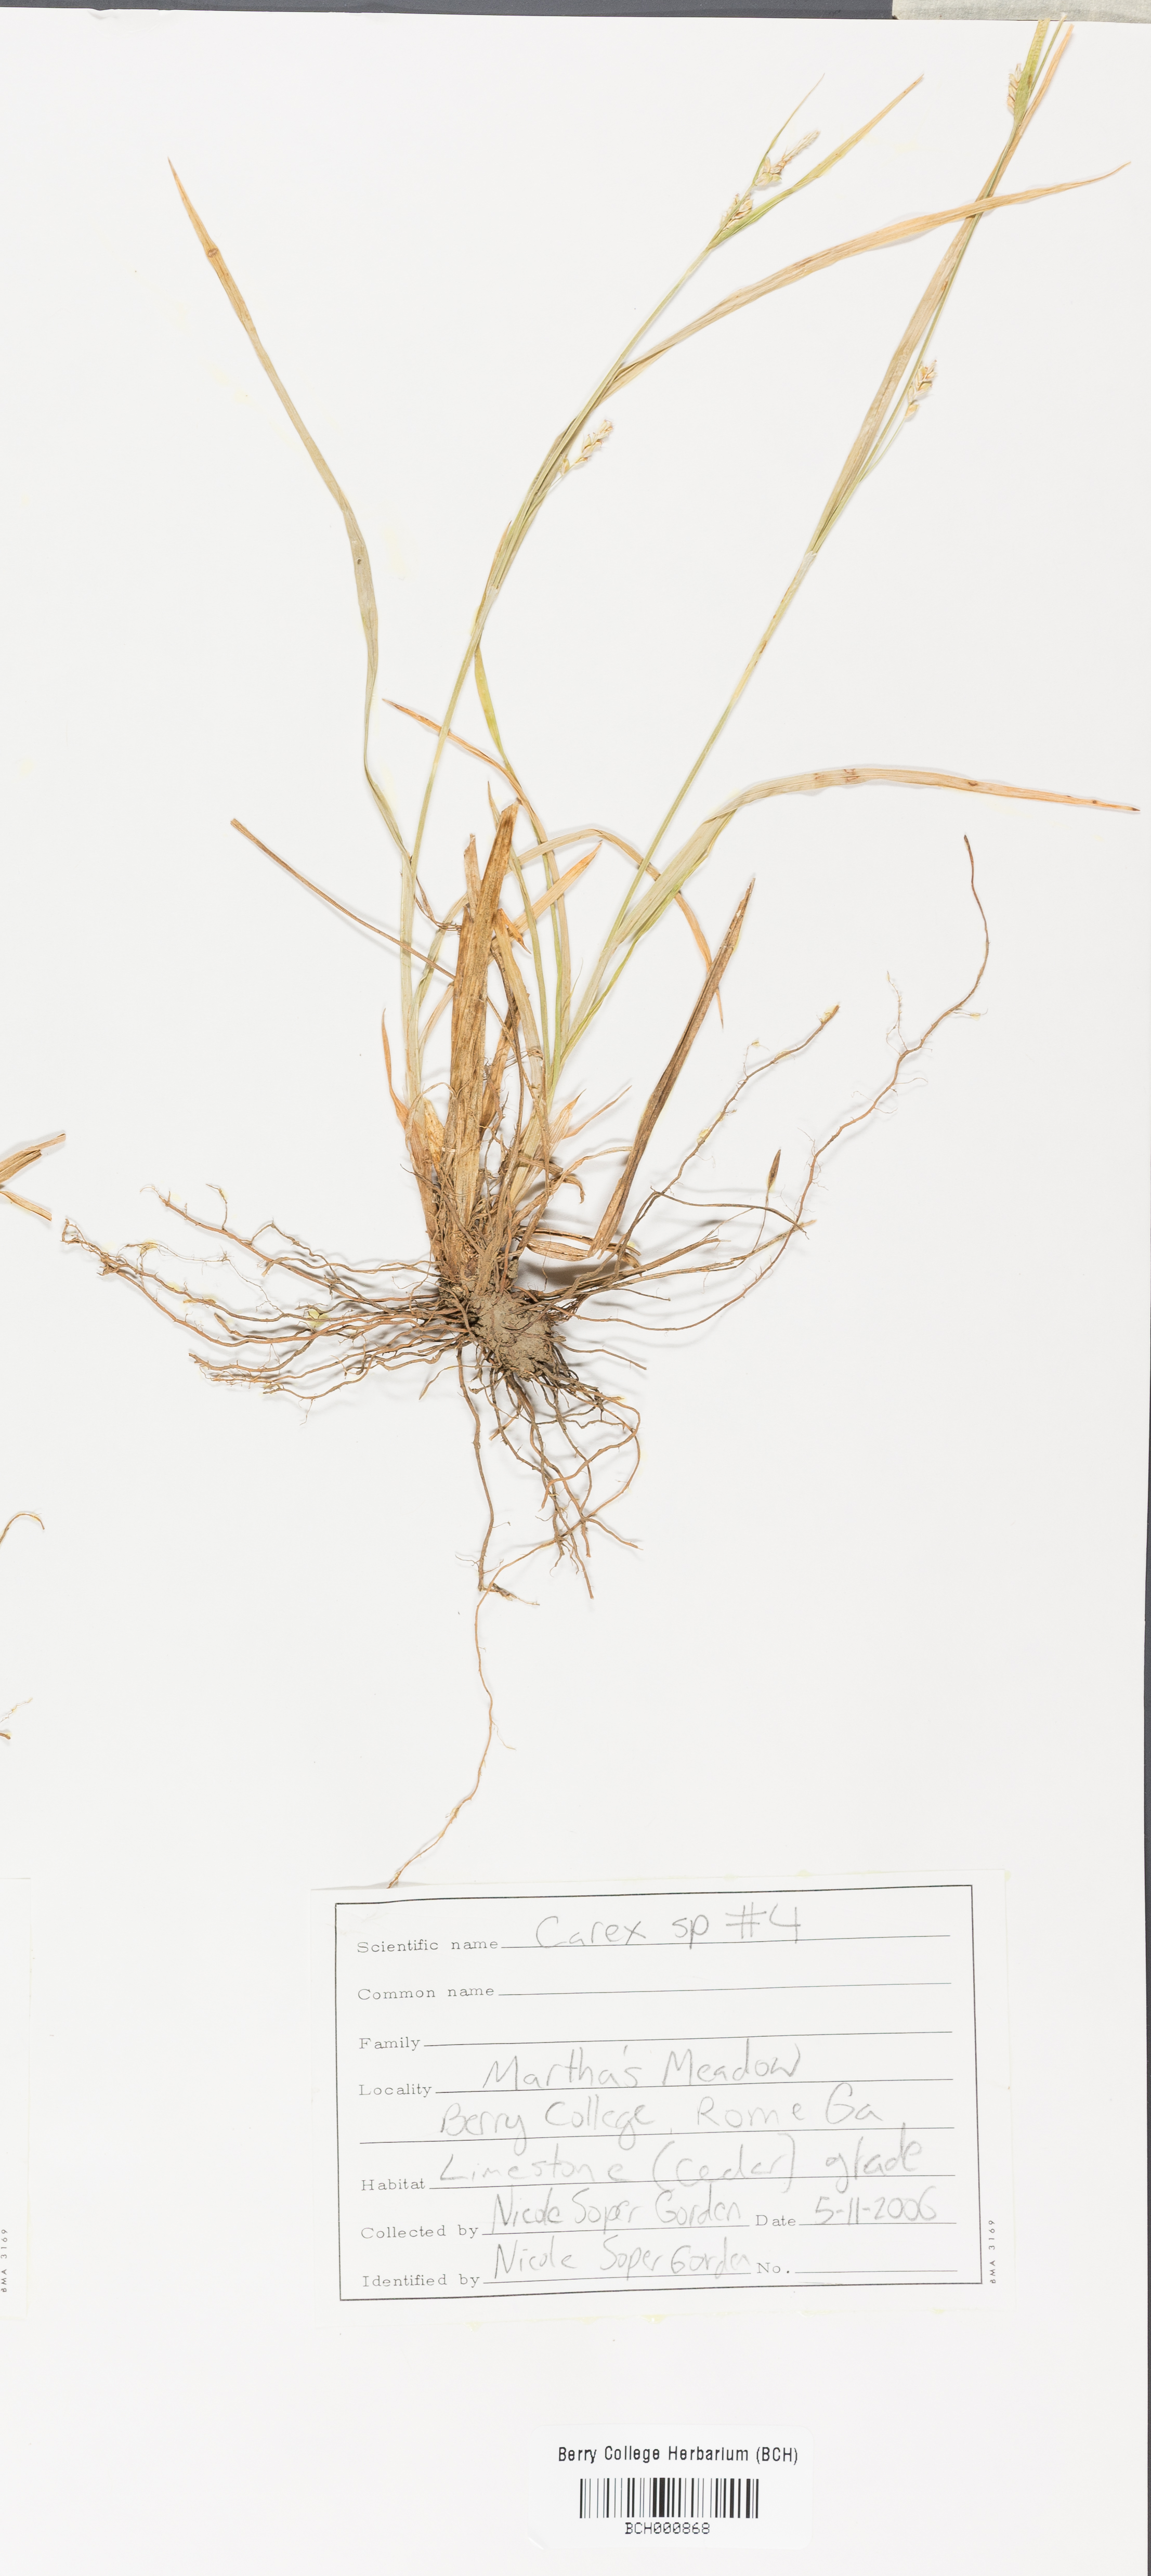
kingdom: Plantae
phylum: Tracheophyta
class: Liliopsida
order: Poales
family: Cyperaceae
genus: Carex
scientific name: Carex
